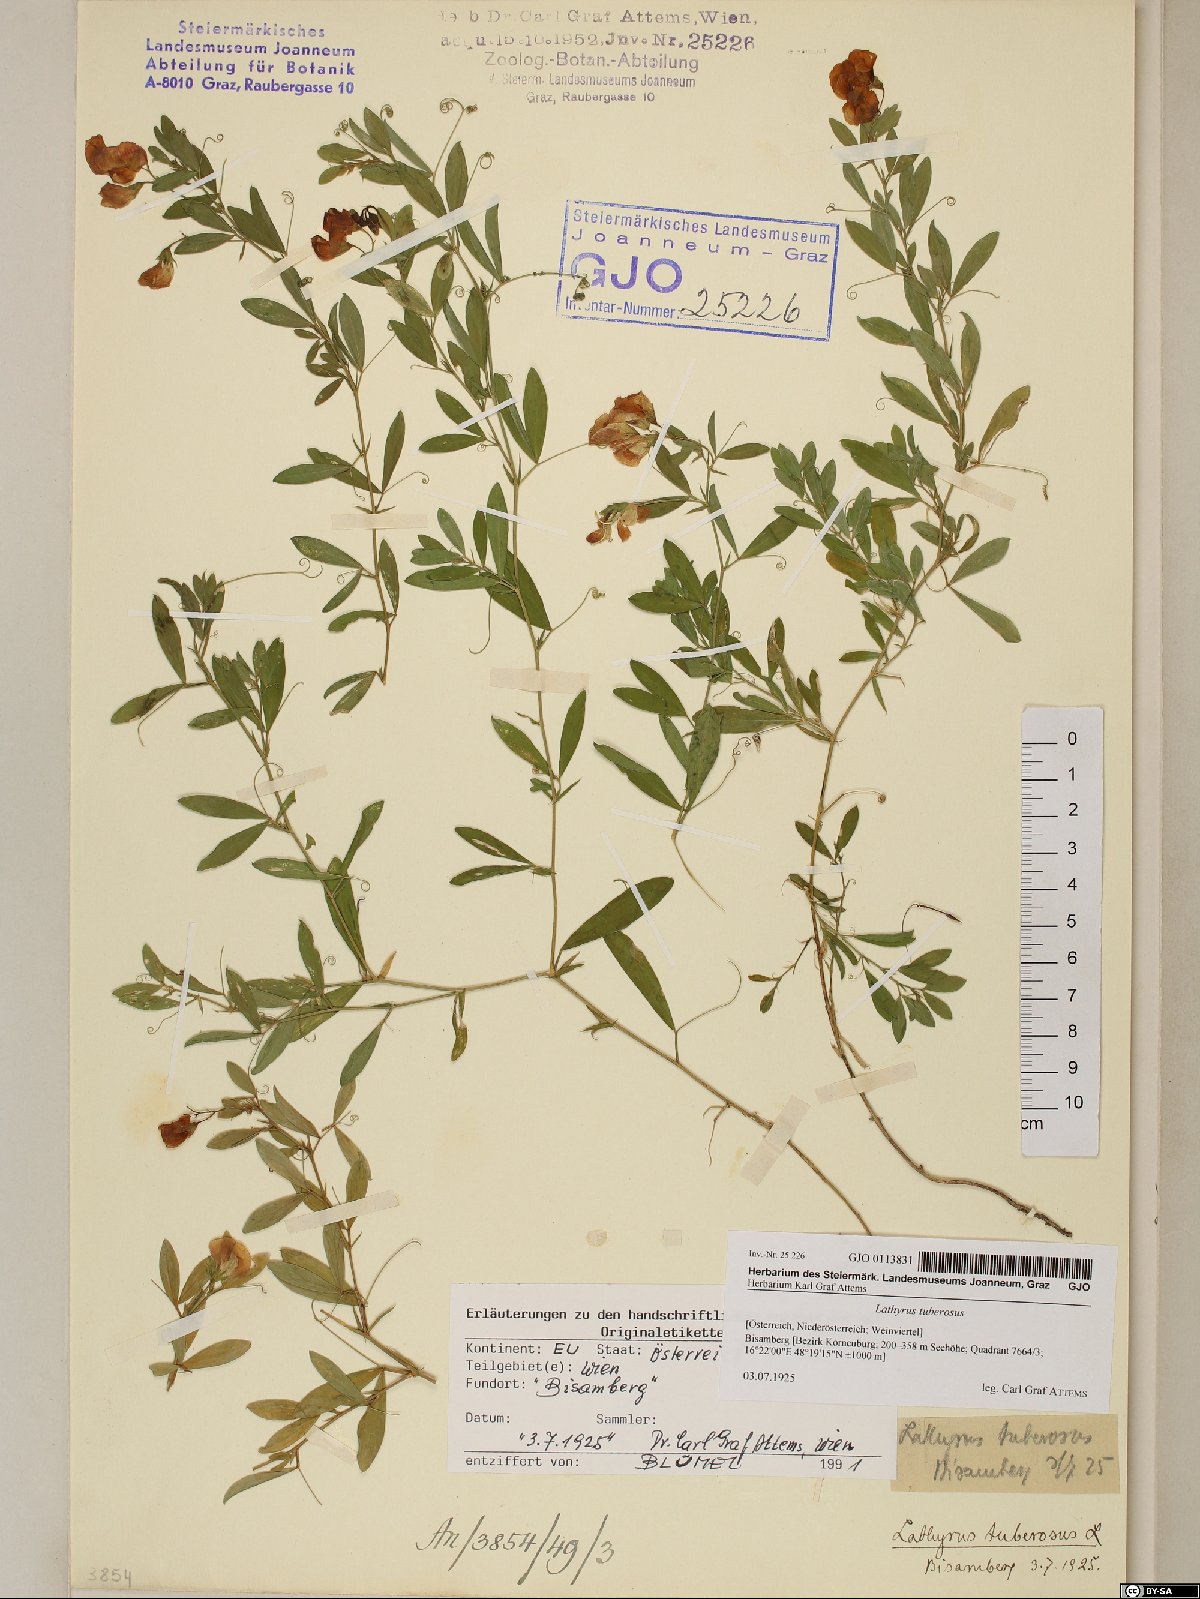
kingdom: Plantae
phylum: Tracheophyta
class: Magnoliopsida
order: Fabales
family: Fabaceae
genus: Lathyrus
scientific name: Lathyrus tuberosus
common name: Tuberous pea
